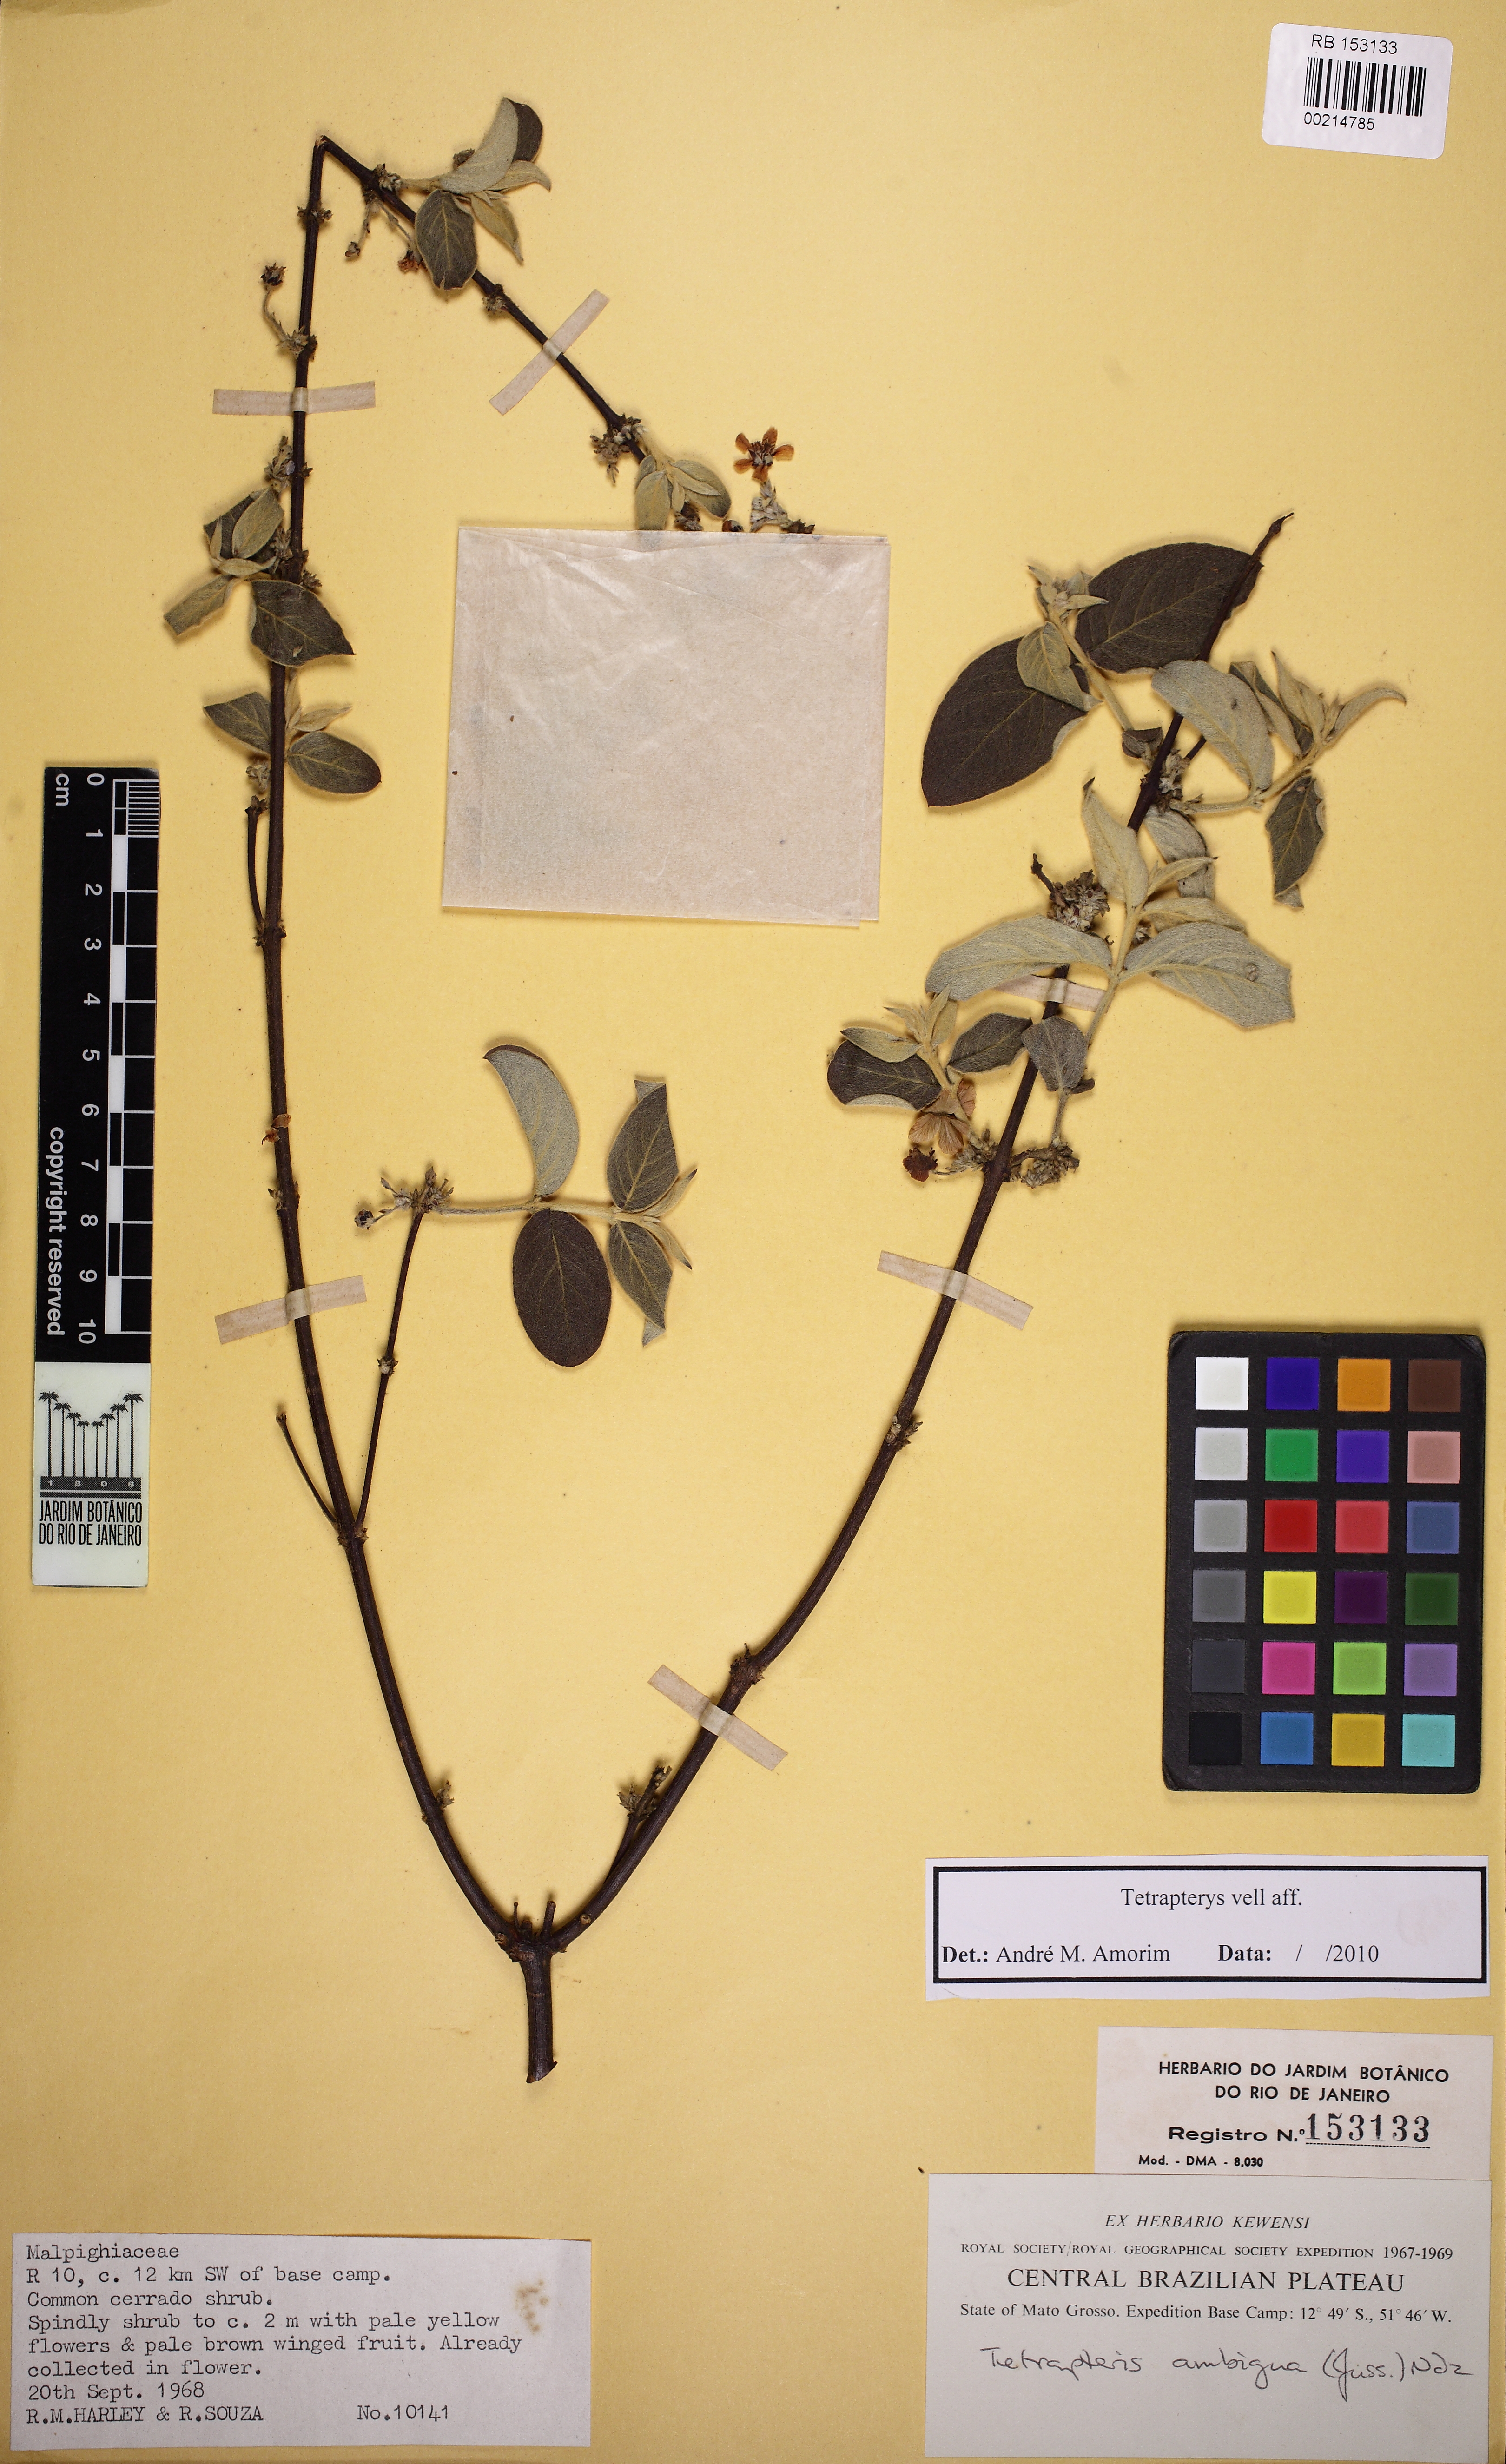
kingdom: Plantae
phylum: Tracheophyta
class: Magnoliopsida
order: Malpighiales
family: Malpighiaceae
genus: Glicophyllum
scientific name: Glicophyllum ramiflorum
